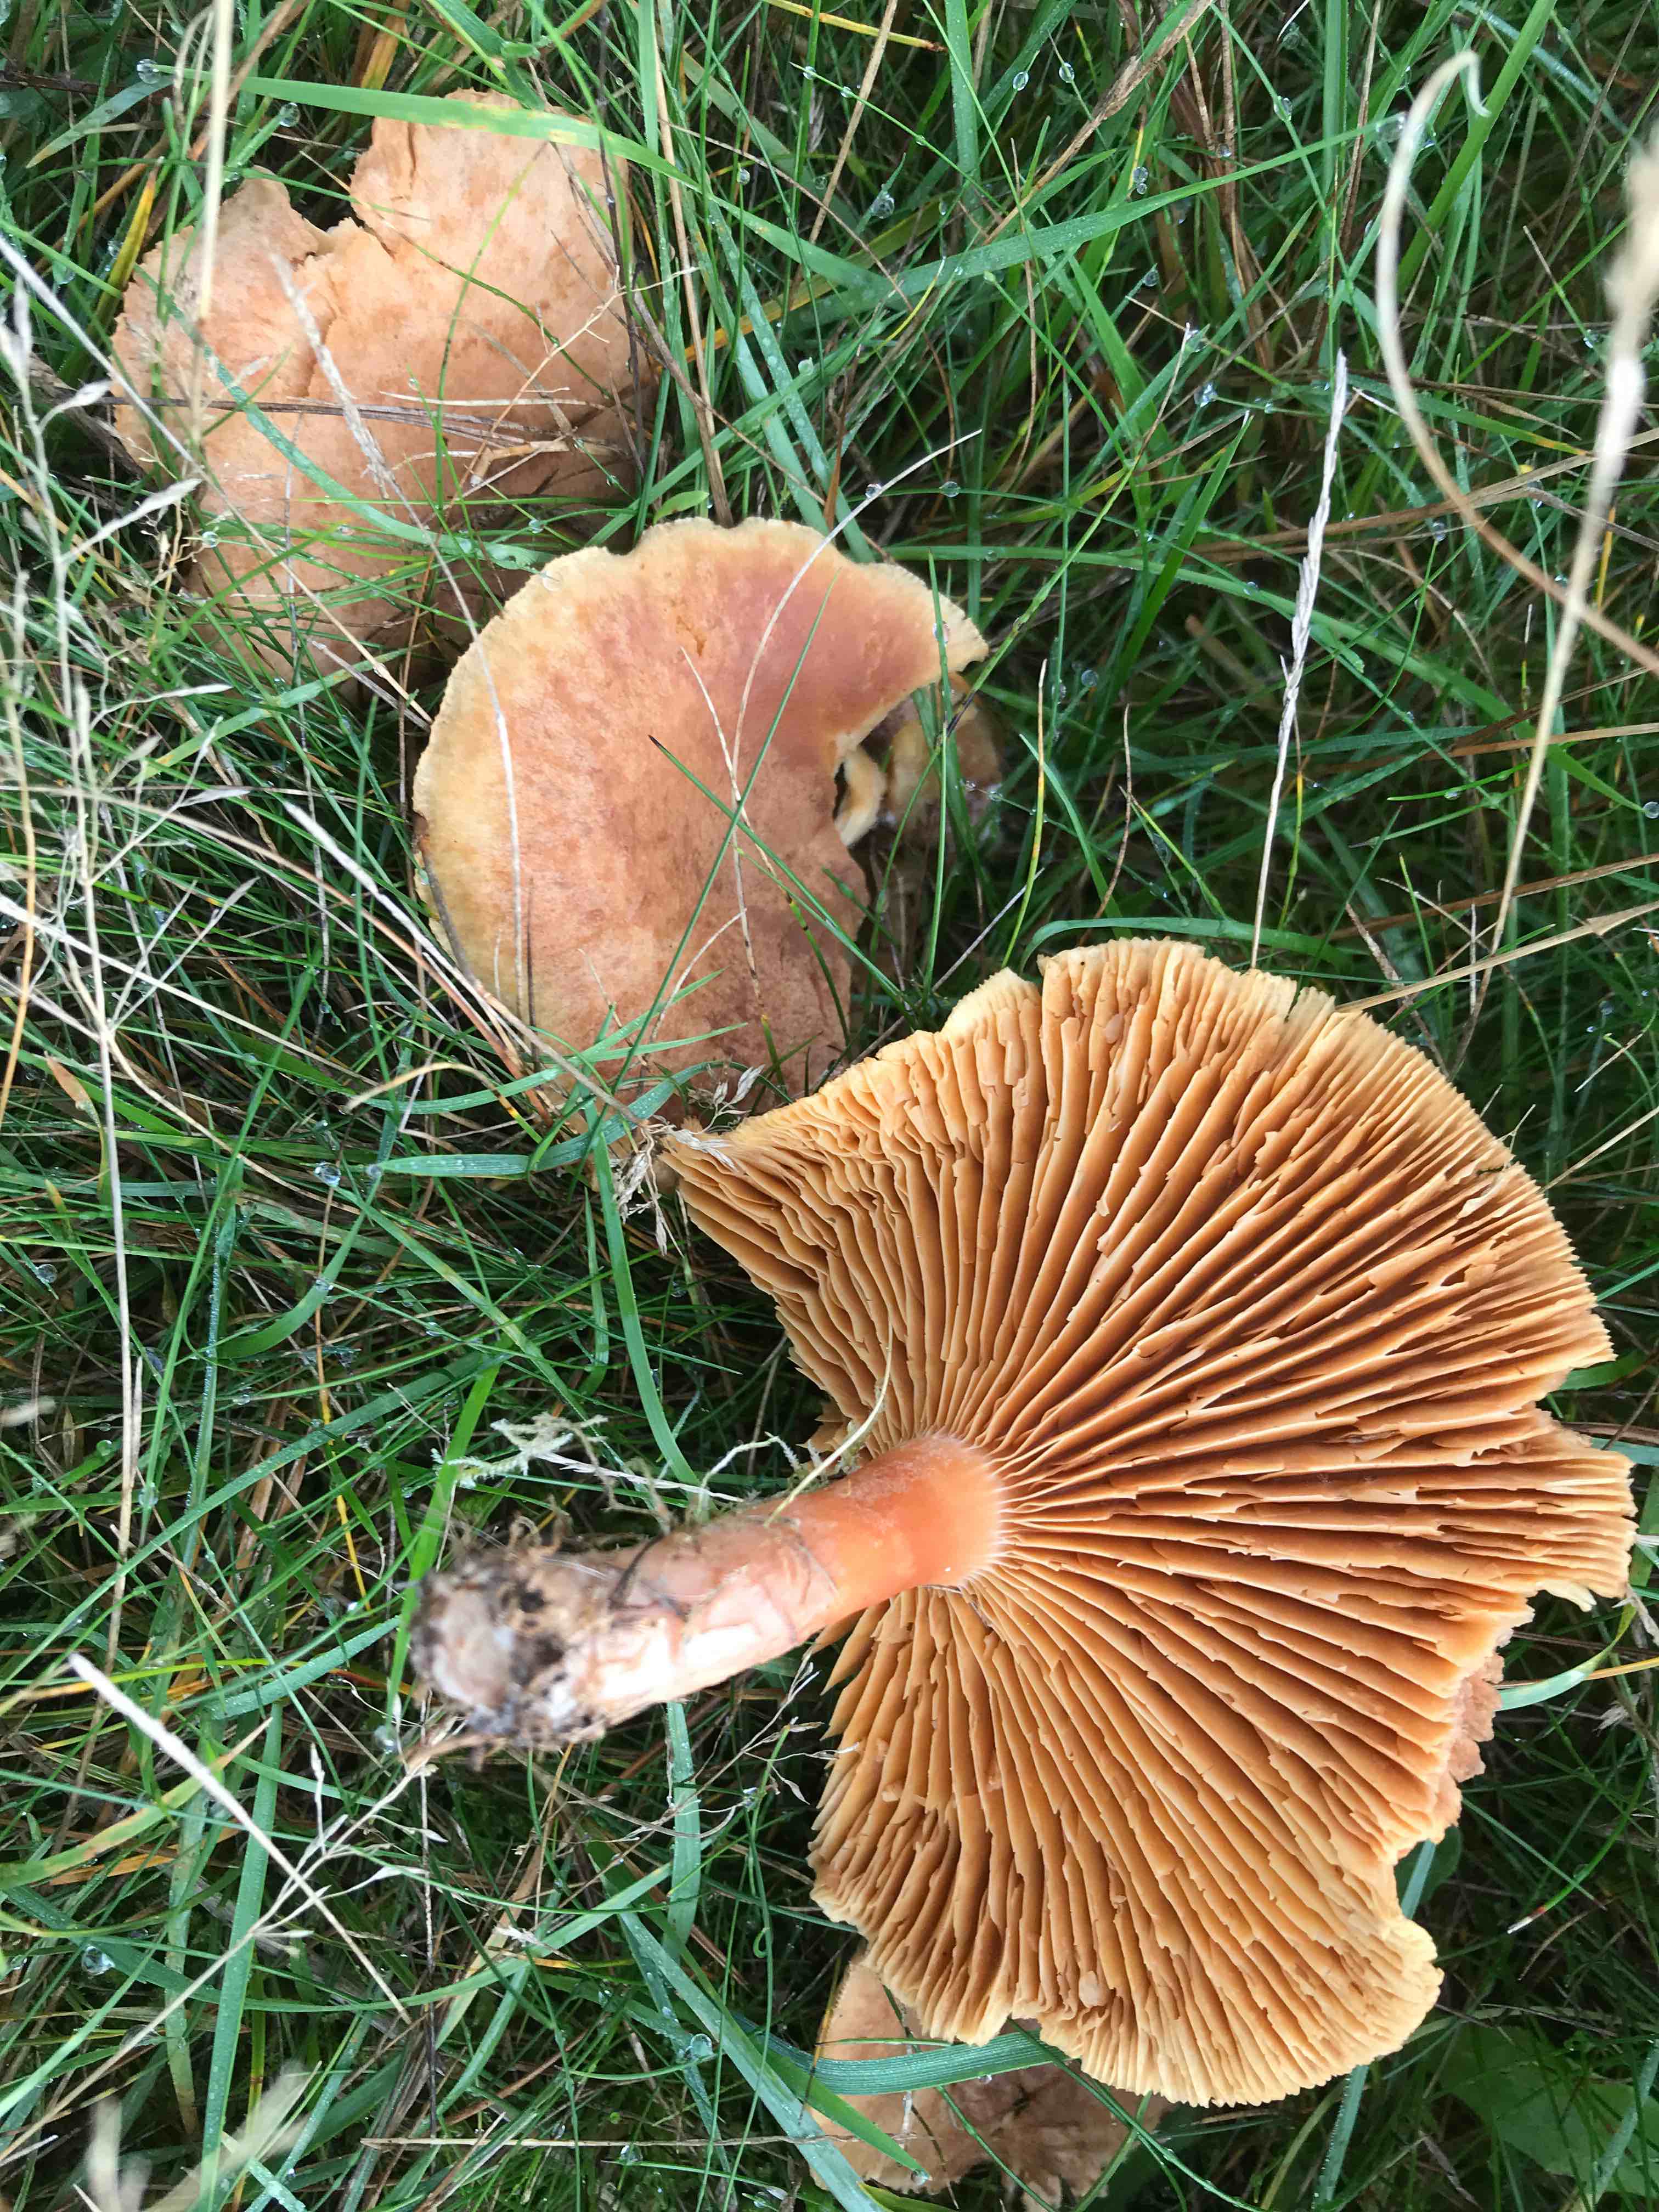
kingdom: Fungi
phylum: Basidiomycota
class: Agaricomycetes
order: Russulales
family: Russulaceae
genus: Lactarius
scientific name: Lactarius helvus
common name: mose-mælkehat
